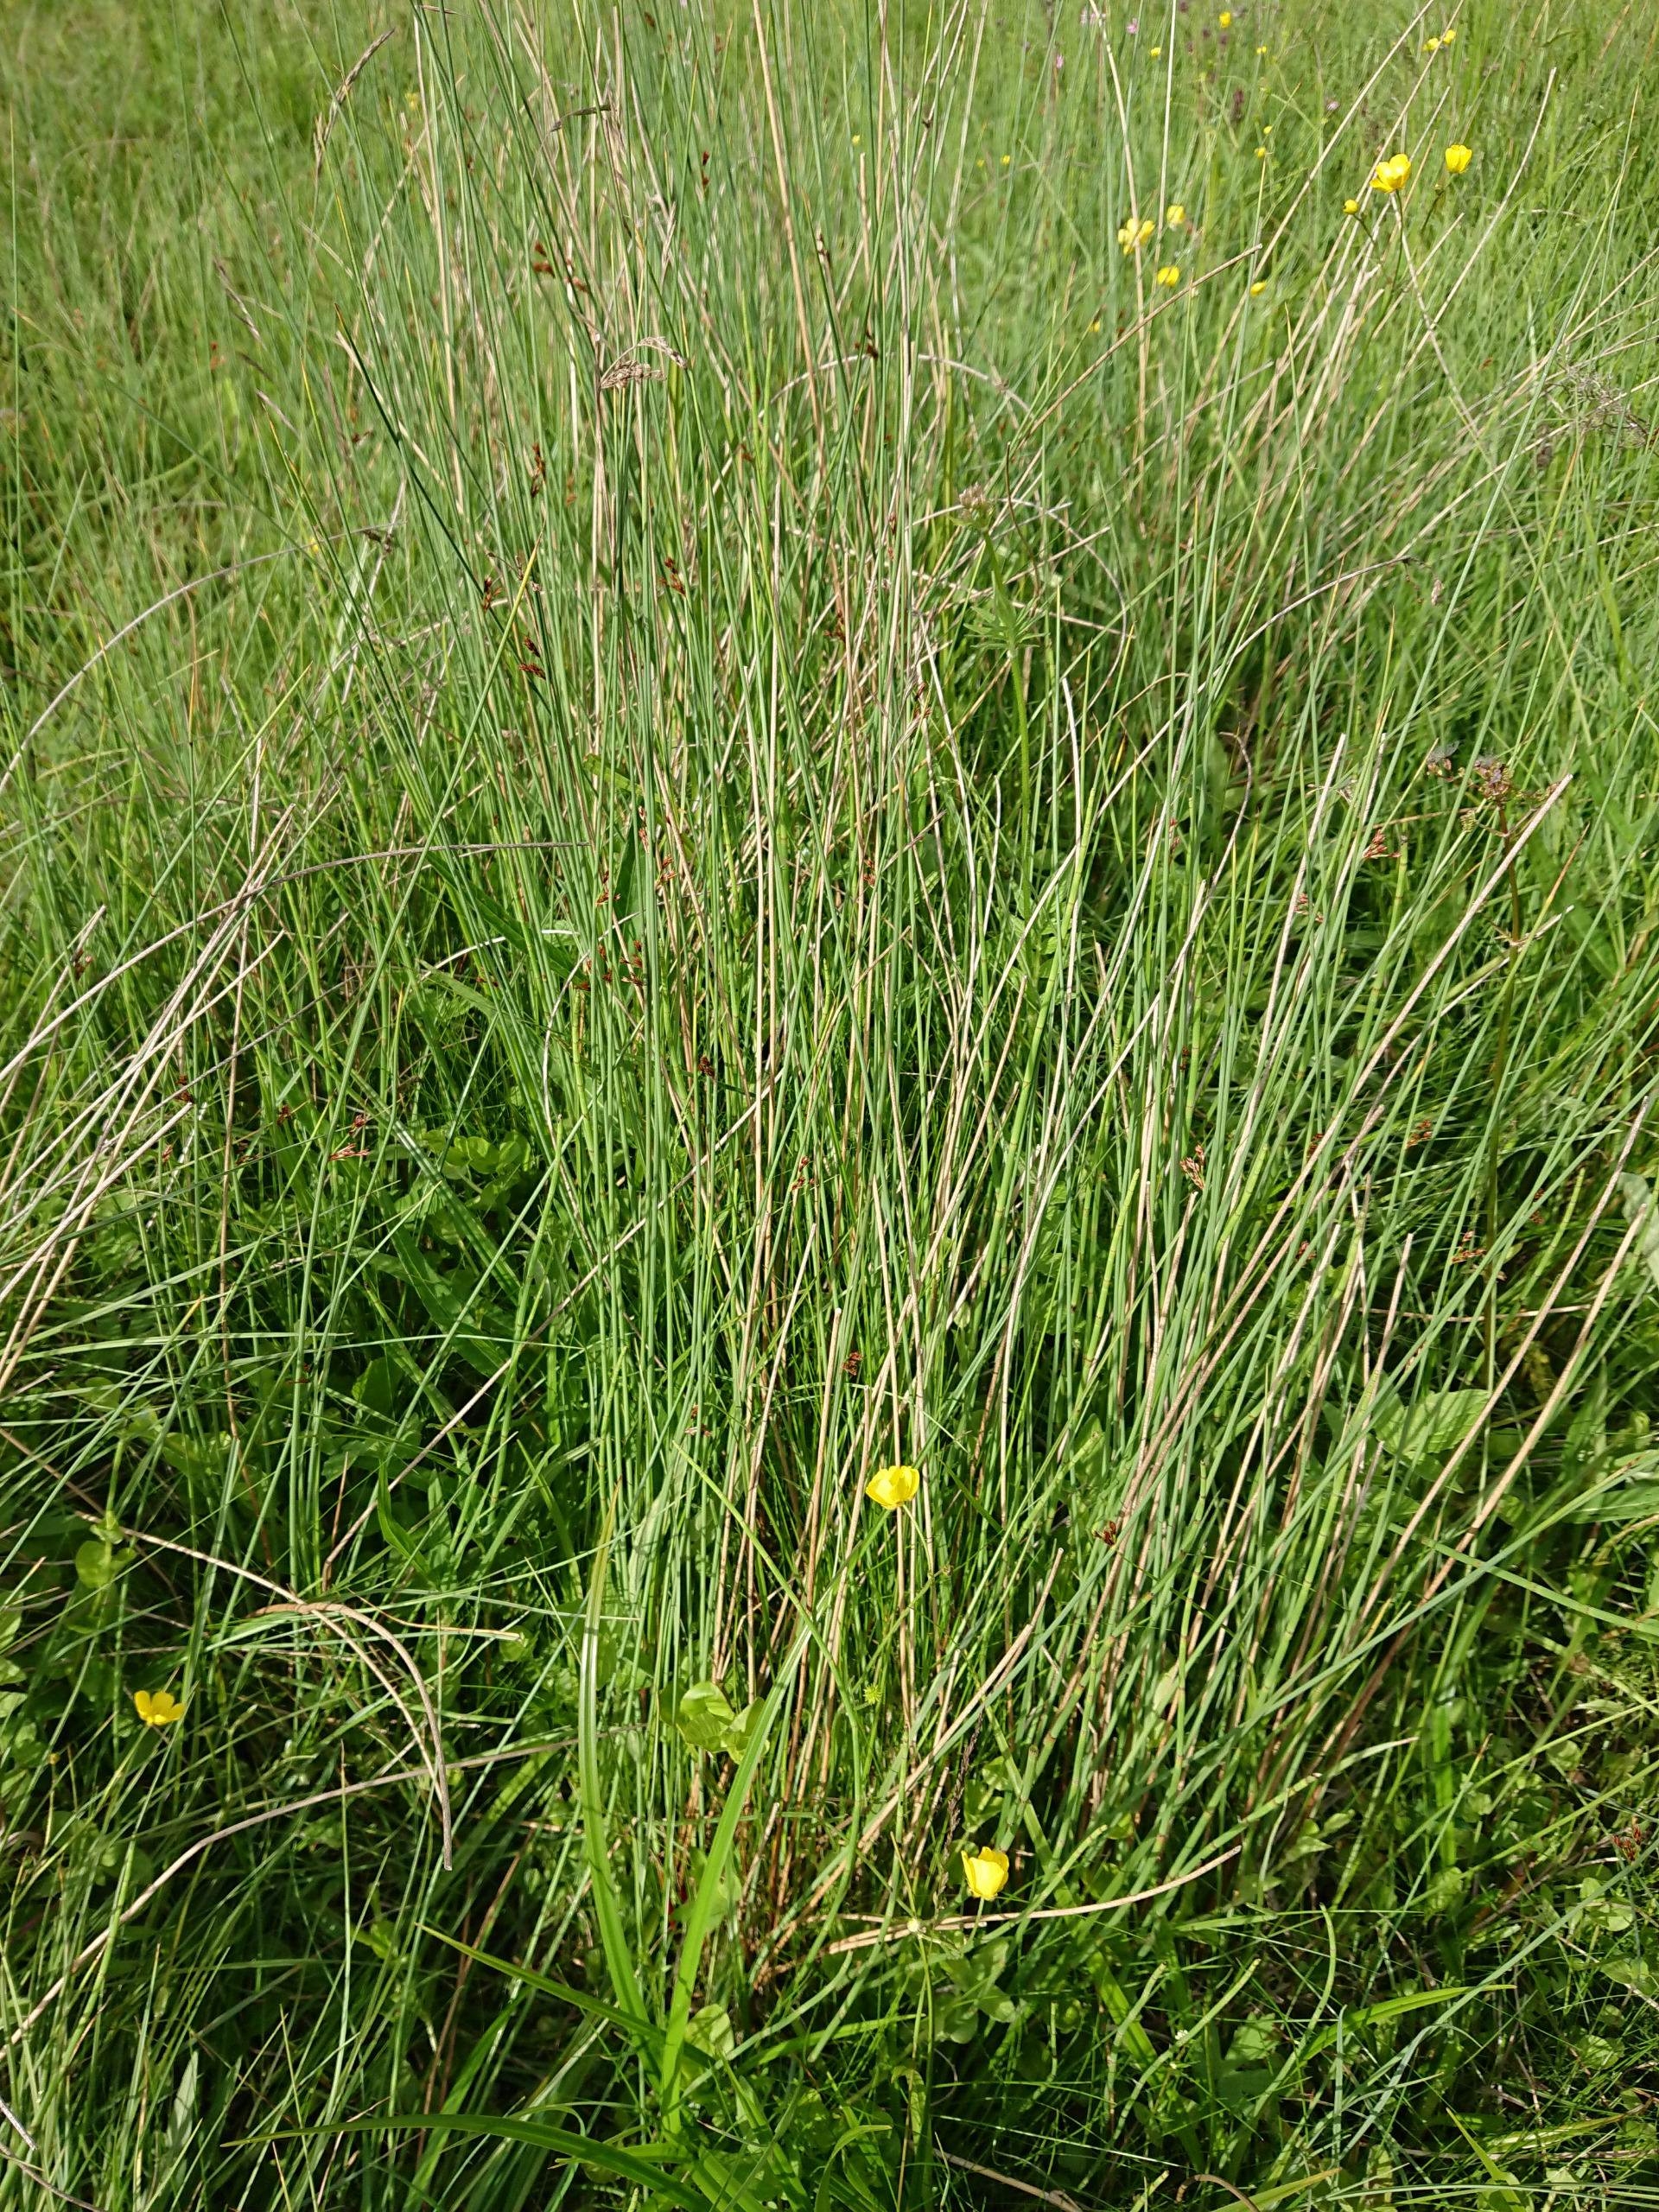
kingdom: Plantae
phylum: Tracheophyta
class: Liliopsida
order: Poales
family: Juncaceae
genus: Juncus
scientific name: Juncus inflexus
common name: Blågrå siv
